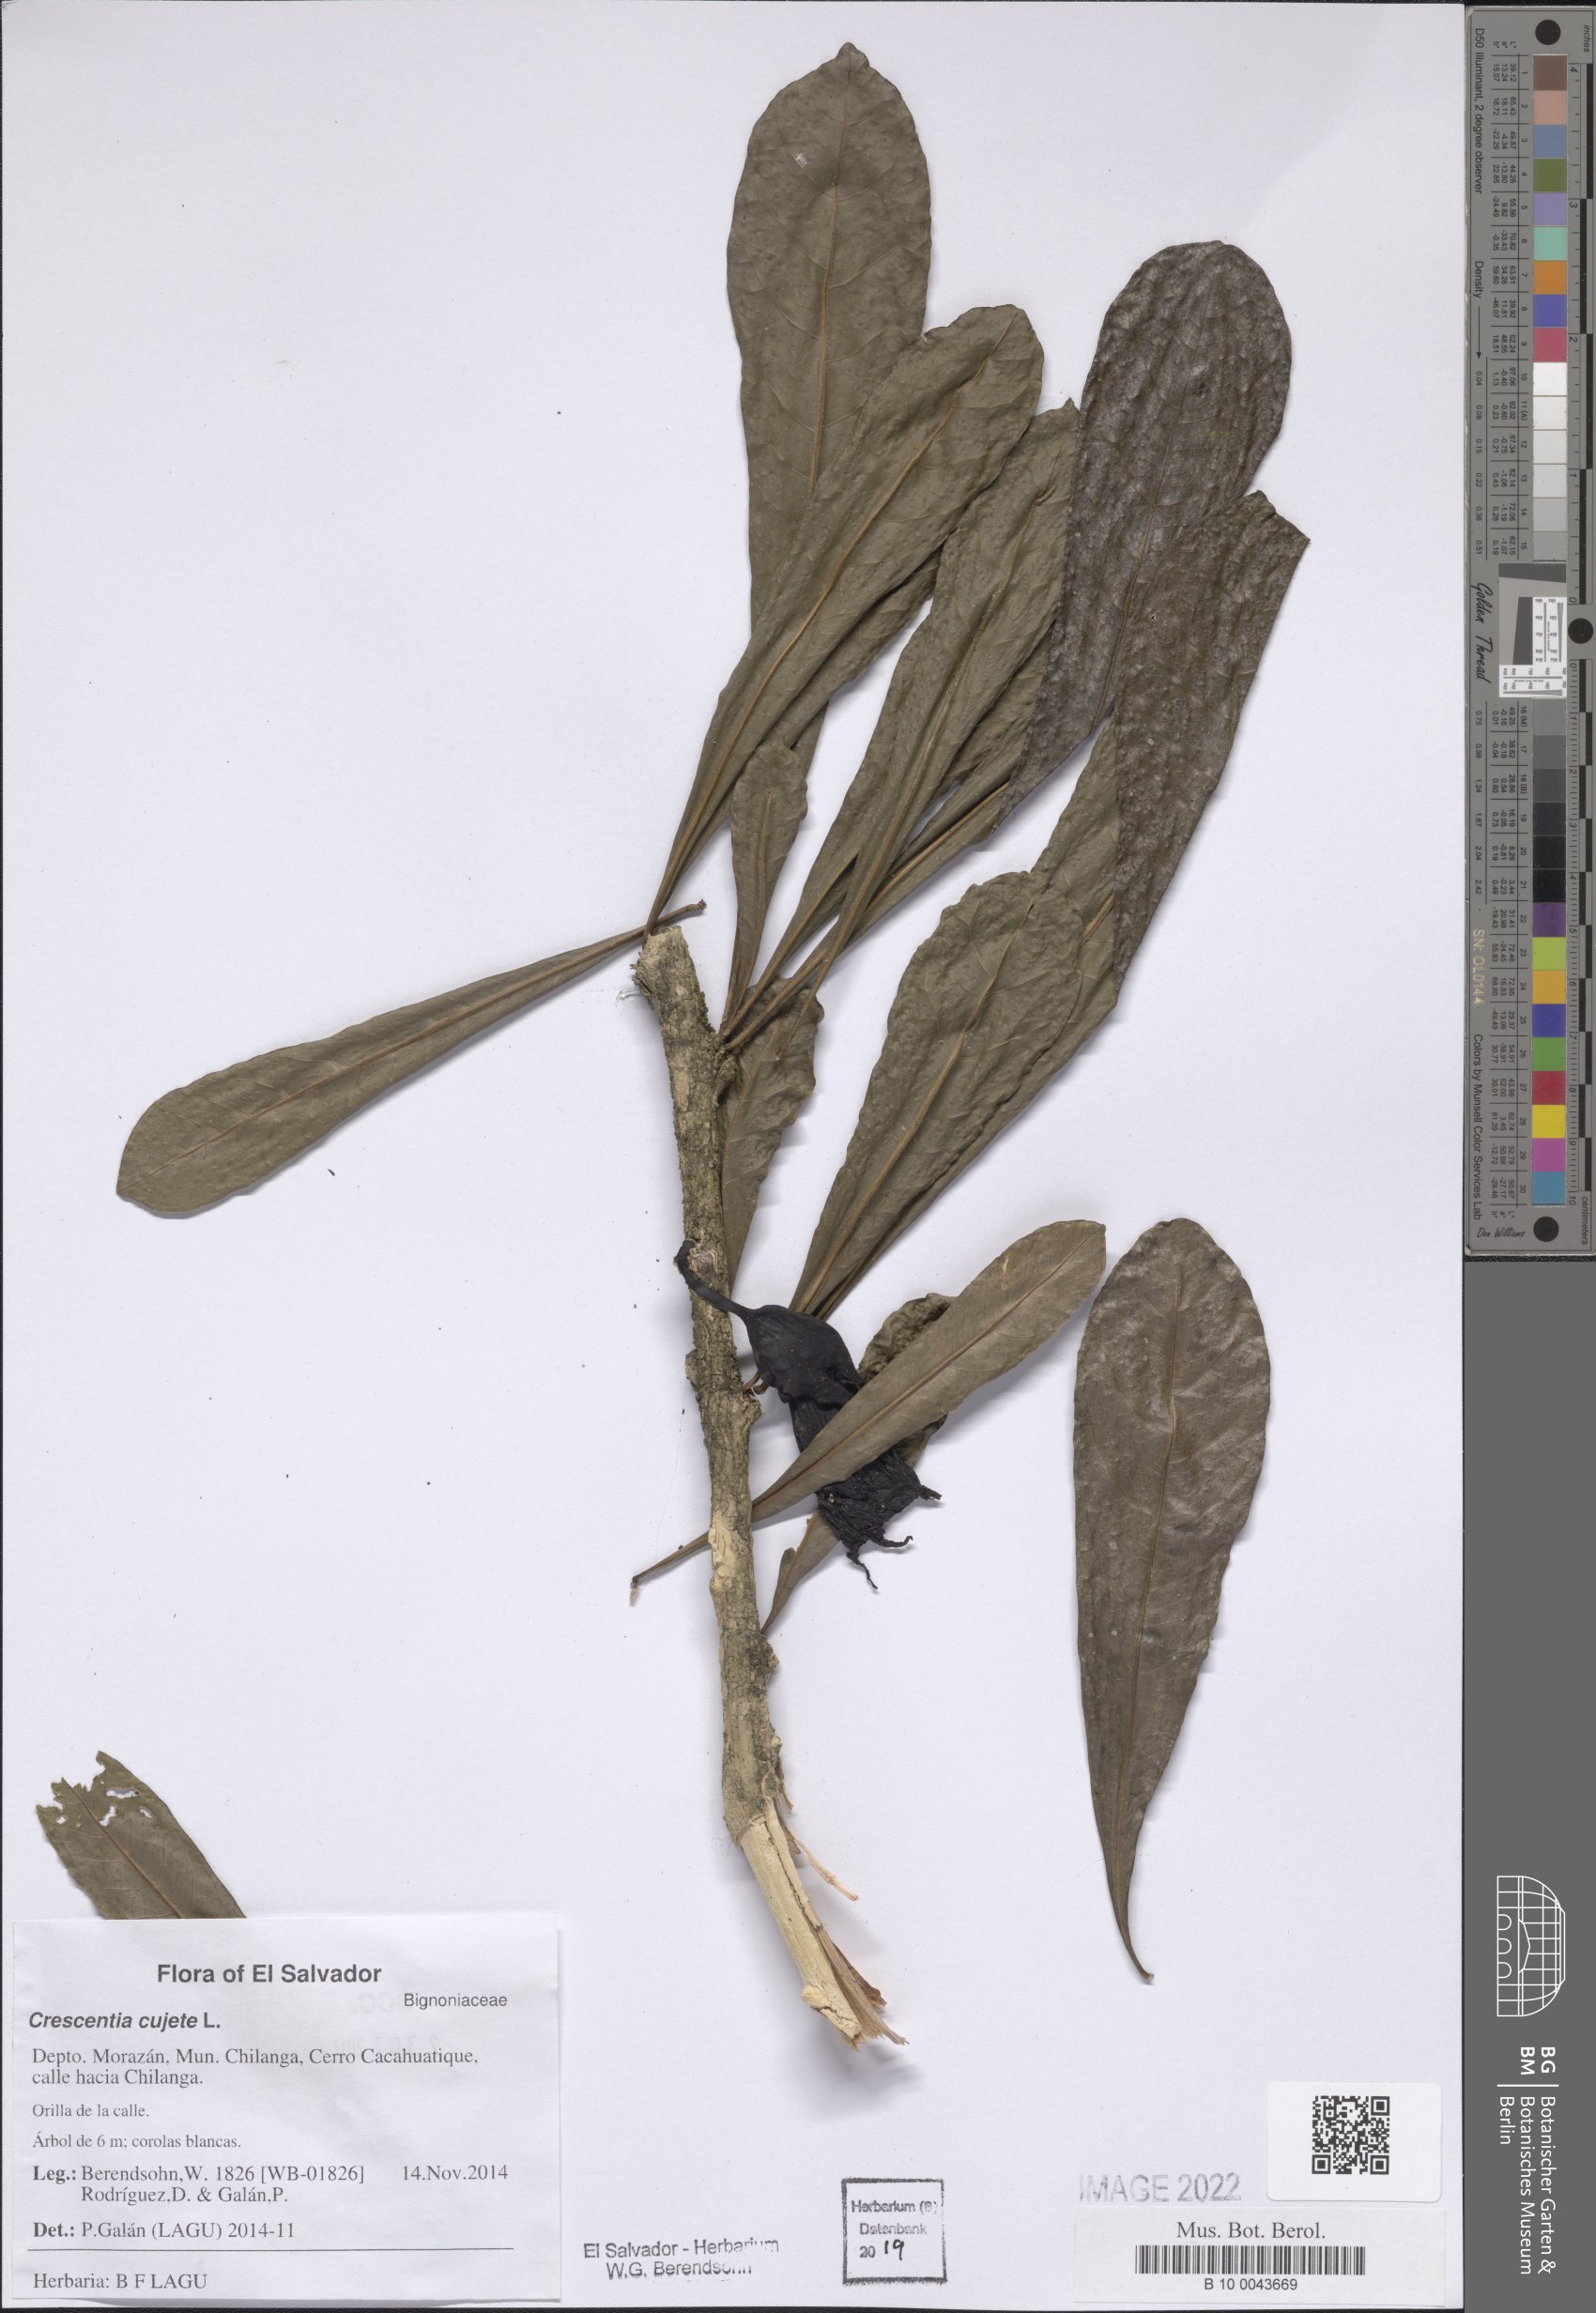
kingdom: Plantae
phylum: Tracheophyta
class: Magnoliopsida
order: Lamiales
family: Bignoniaceae
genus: Crescentia
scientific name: Crescentia cujete
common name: Calabash
